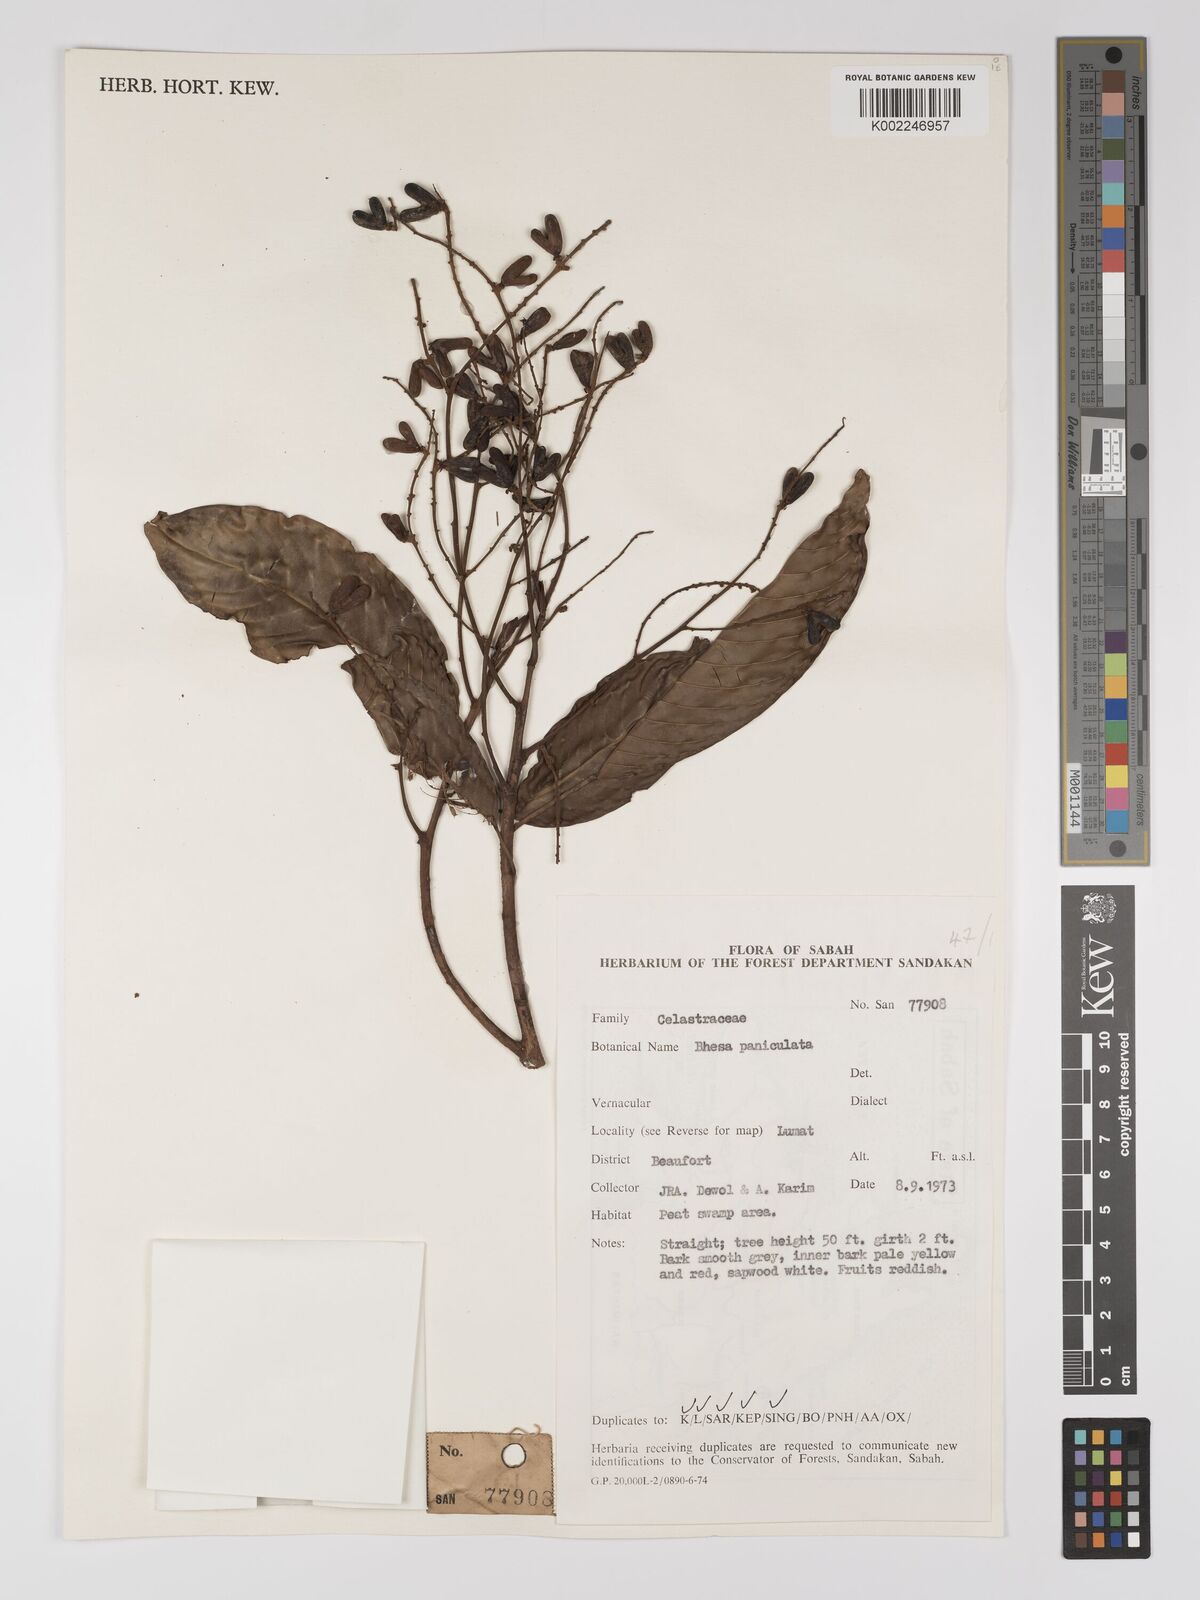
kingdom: Plantae
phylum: Tracheophyta
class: Magnoliopsida
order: Malpighiales
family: Centroplacaceae
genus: Bhesa
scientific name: Bhesa paniculata
